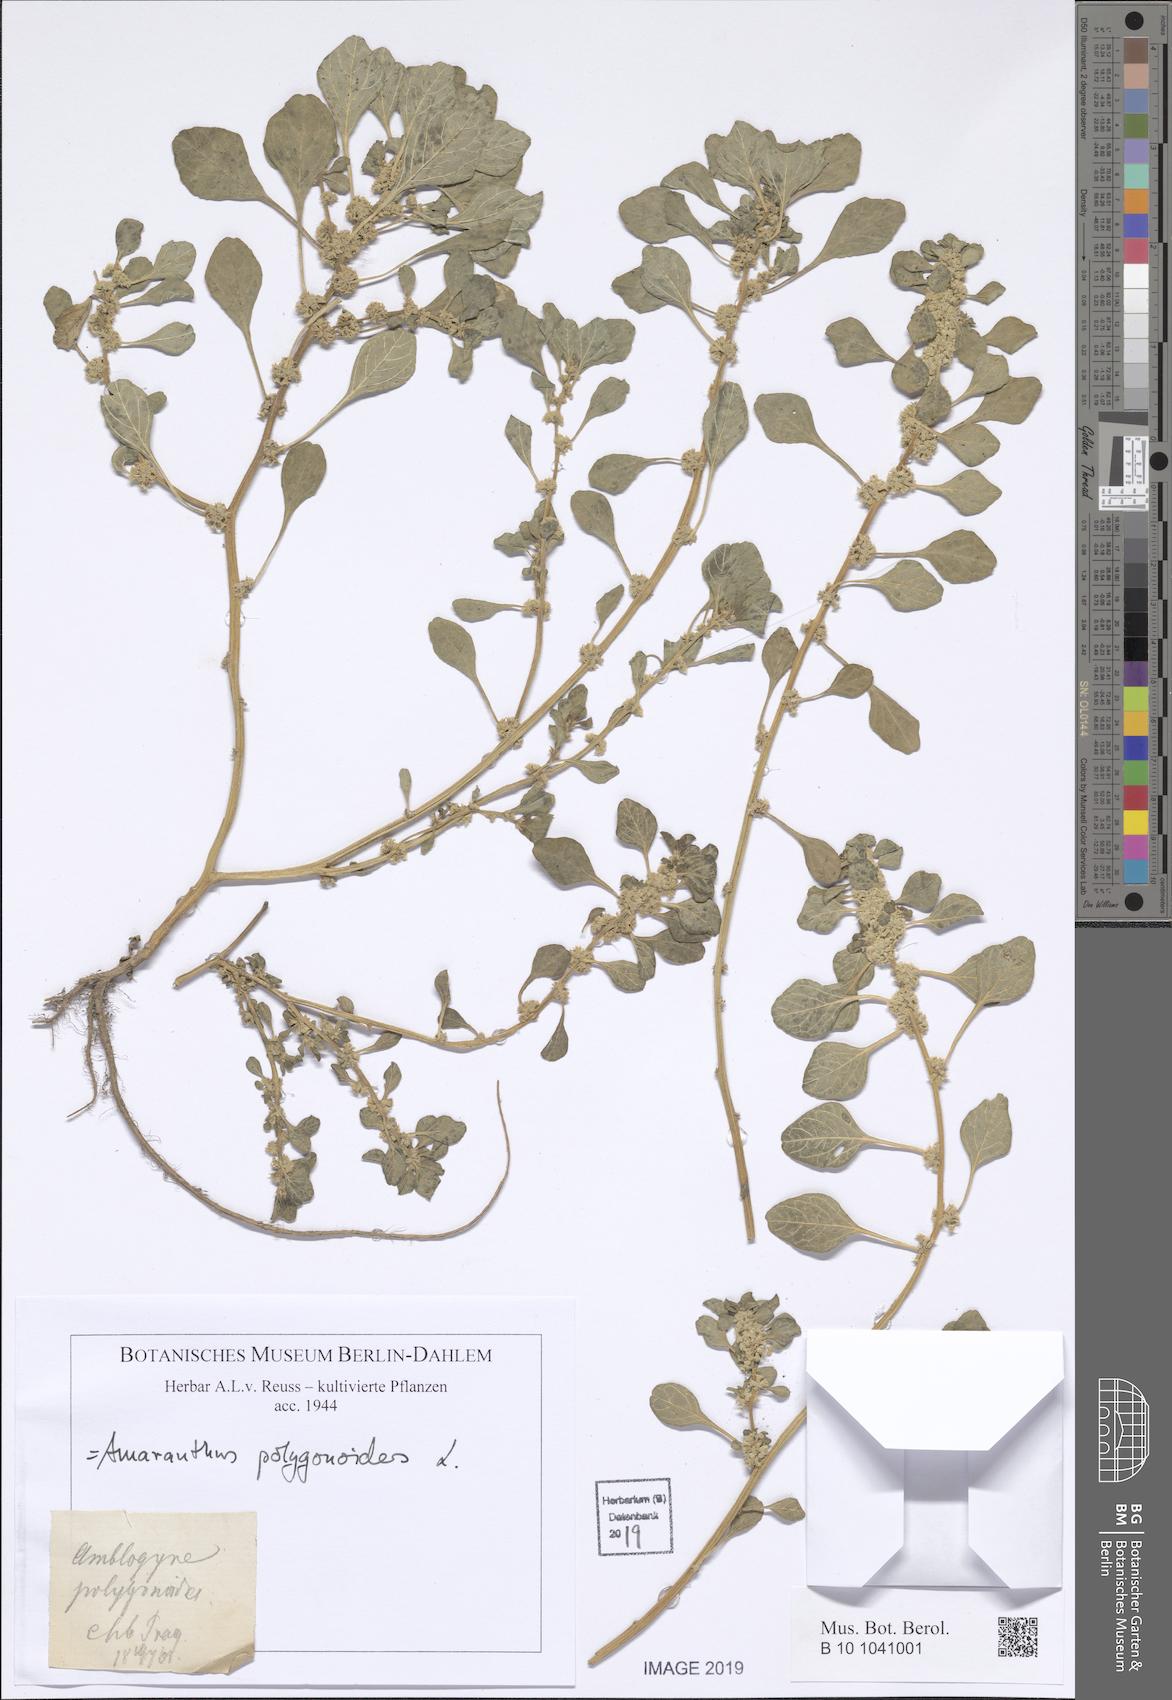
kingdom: Plantae
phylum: Tracheophyta
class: Magnoliopsida
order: Caryophyllales
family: Amaranthaceae
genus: Amaranthus
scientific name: Amaranthus polygonoides
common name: Tropical amaranth
